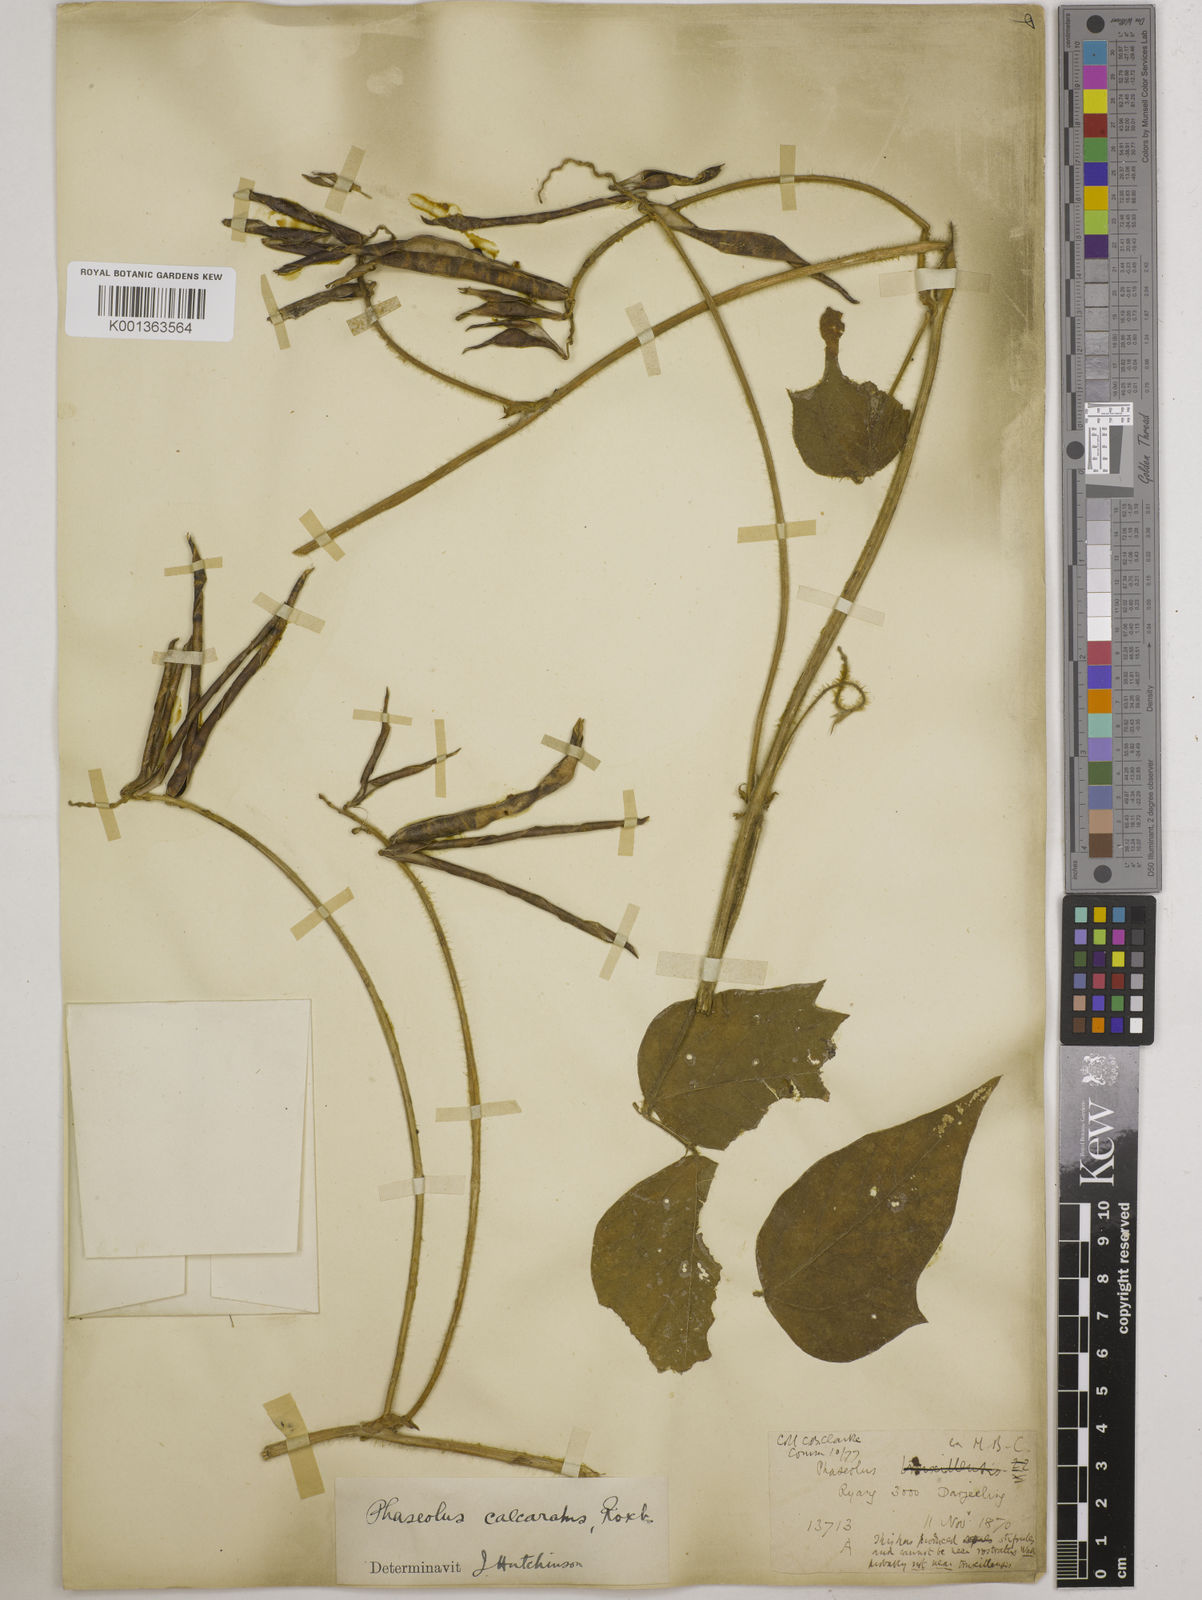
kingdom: Plantae
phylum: Tracheophyta
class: Magnoliopsida
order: Fabales
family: Fabaceae
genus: Vigna
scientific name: Vigna umbellata
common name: Oriental-bean
